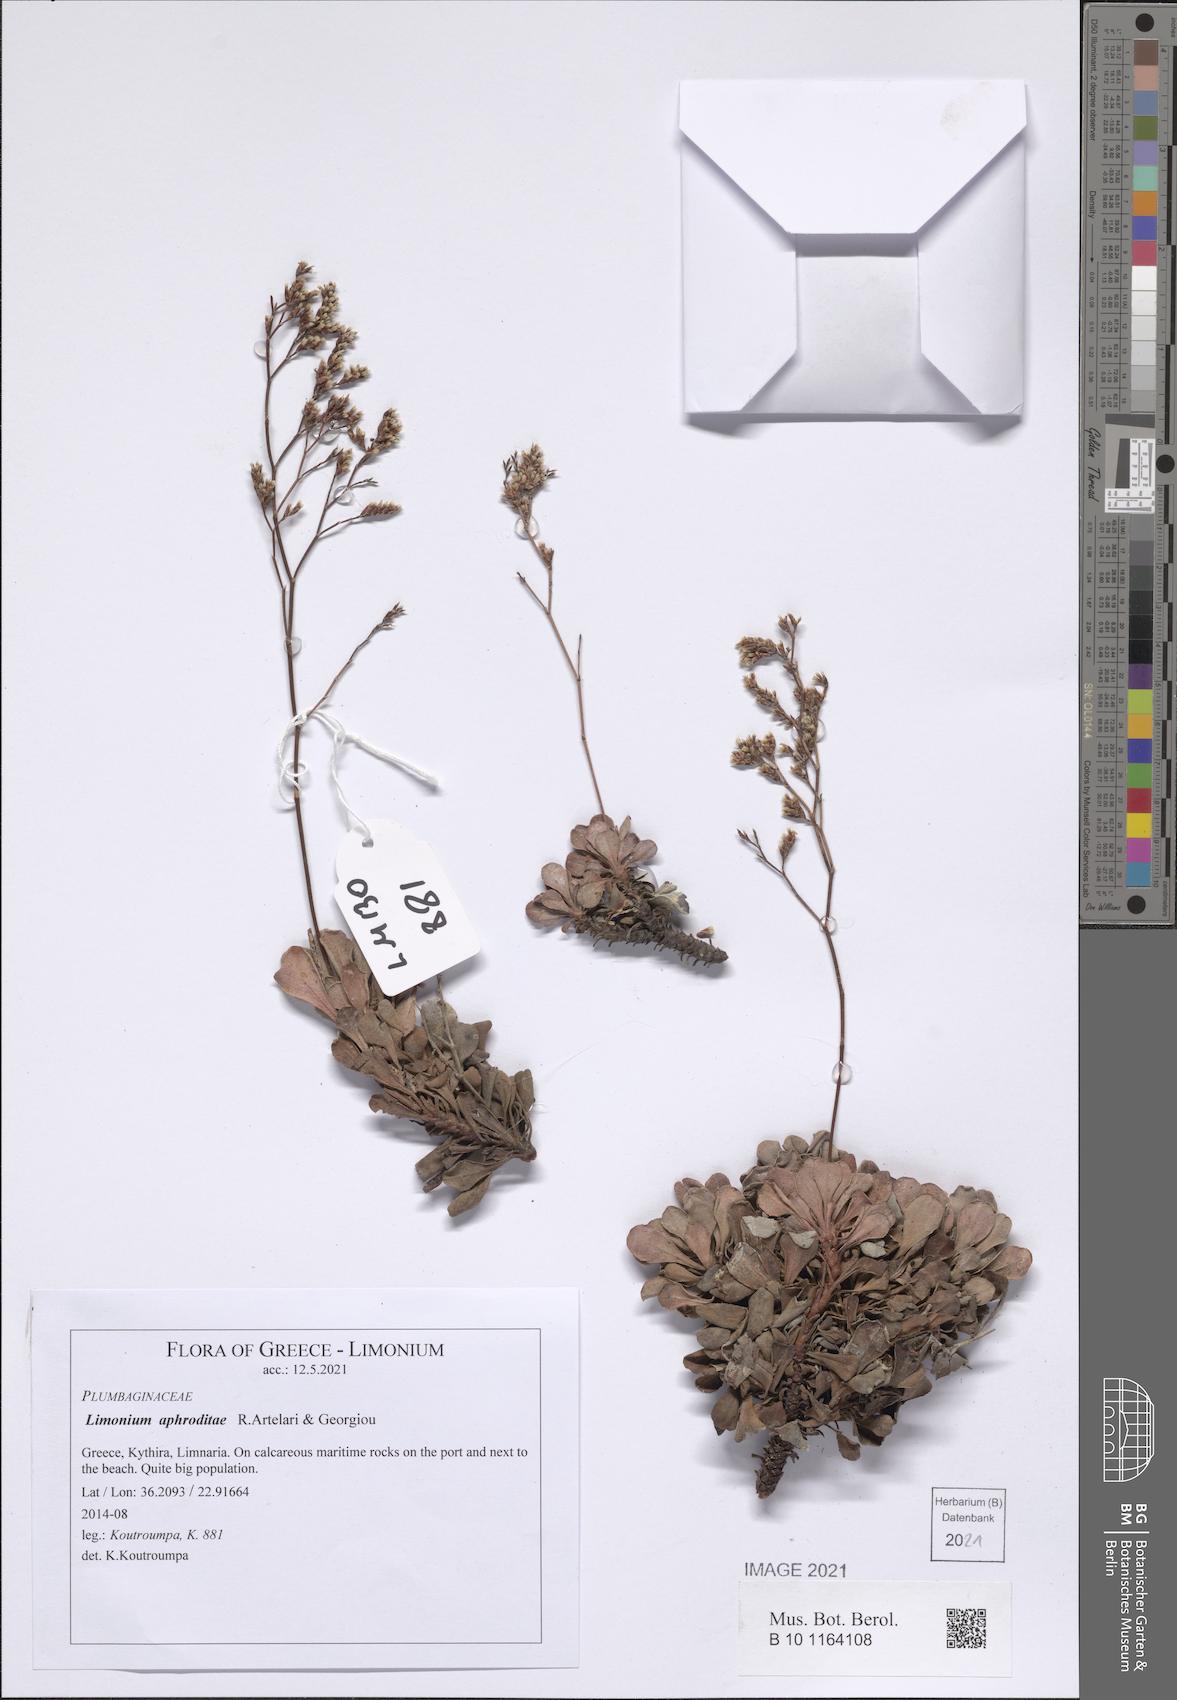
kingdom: Plantae
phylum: Tracheophyta
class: Magnoliopsida
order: Caryophyllales
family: Plumbaginaceae
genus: Limonium
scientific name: Limonium aphroditae
